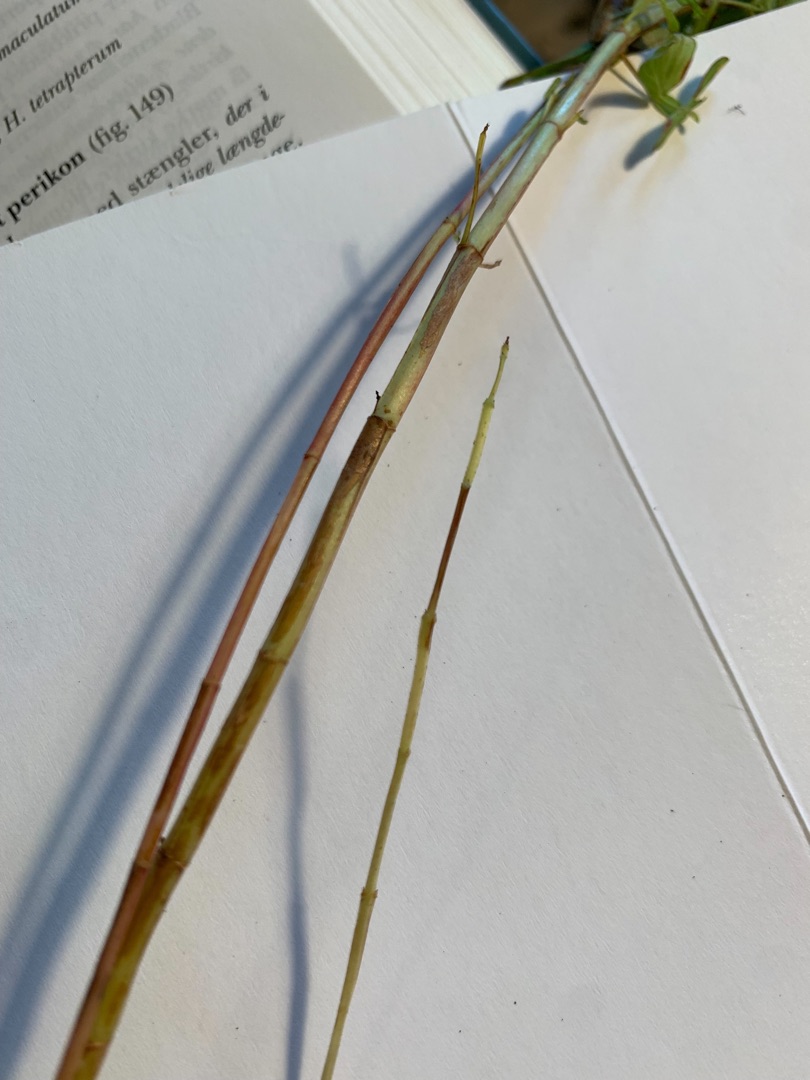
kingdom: Plantae
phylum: Tracheophyta
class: Magnoliopsida
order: Malpighiales
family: Hypericaceae
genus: Hypericum
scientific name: Hypericum perforatum
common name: Prikbladet perikon
